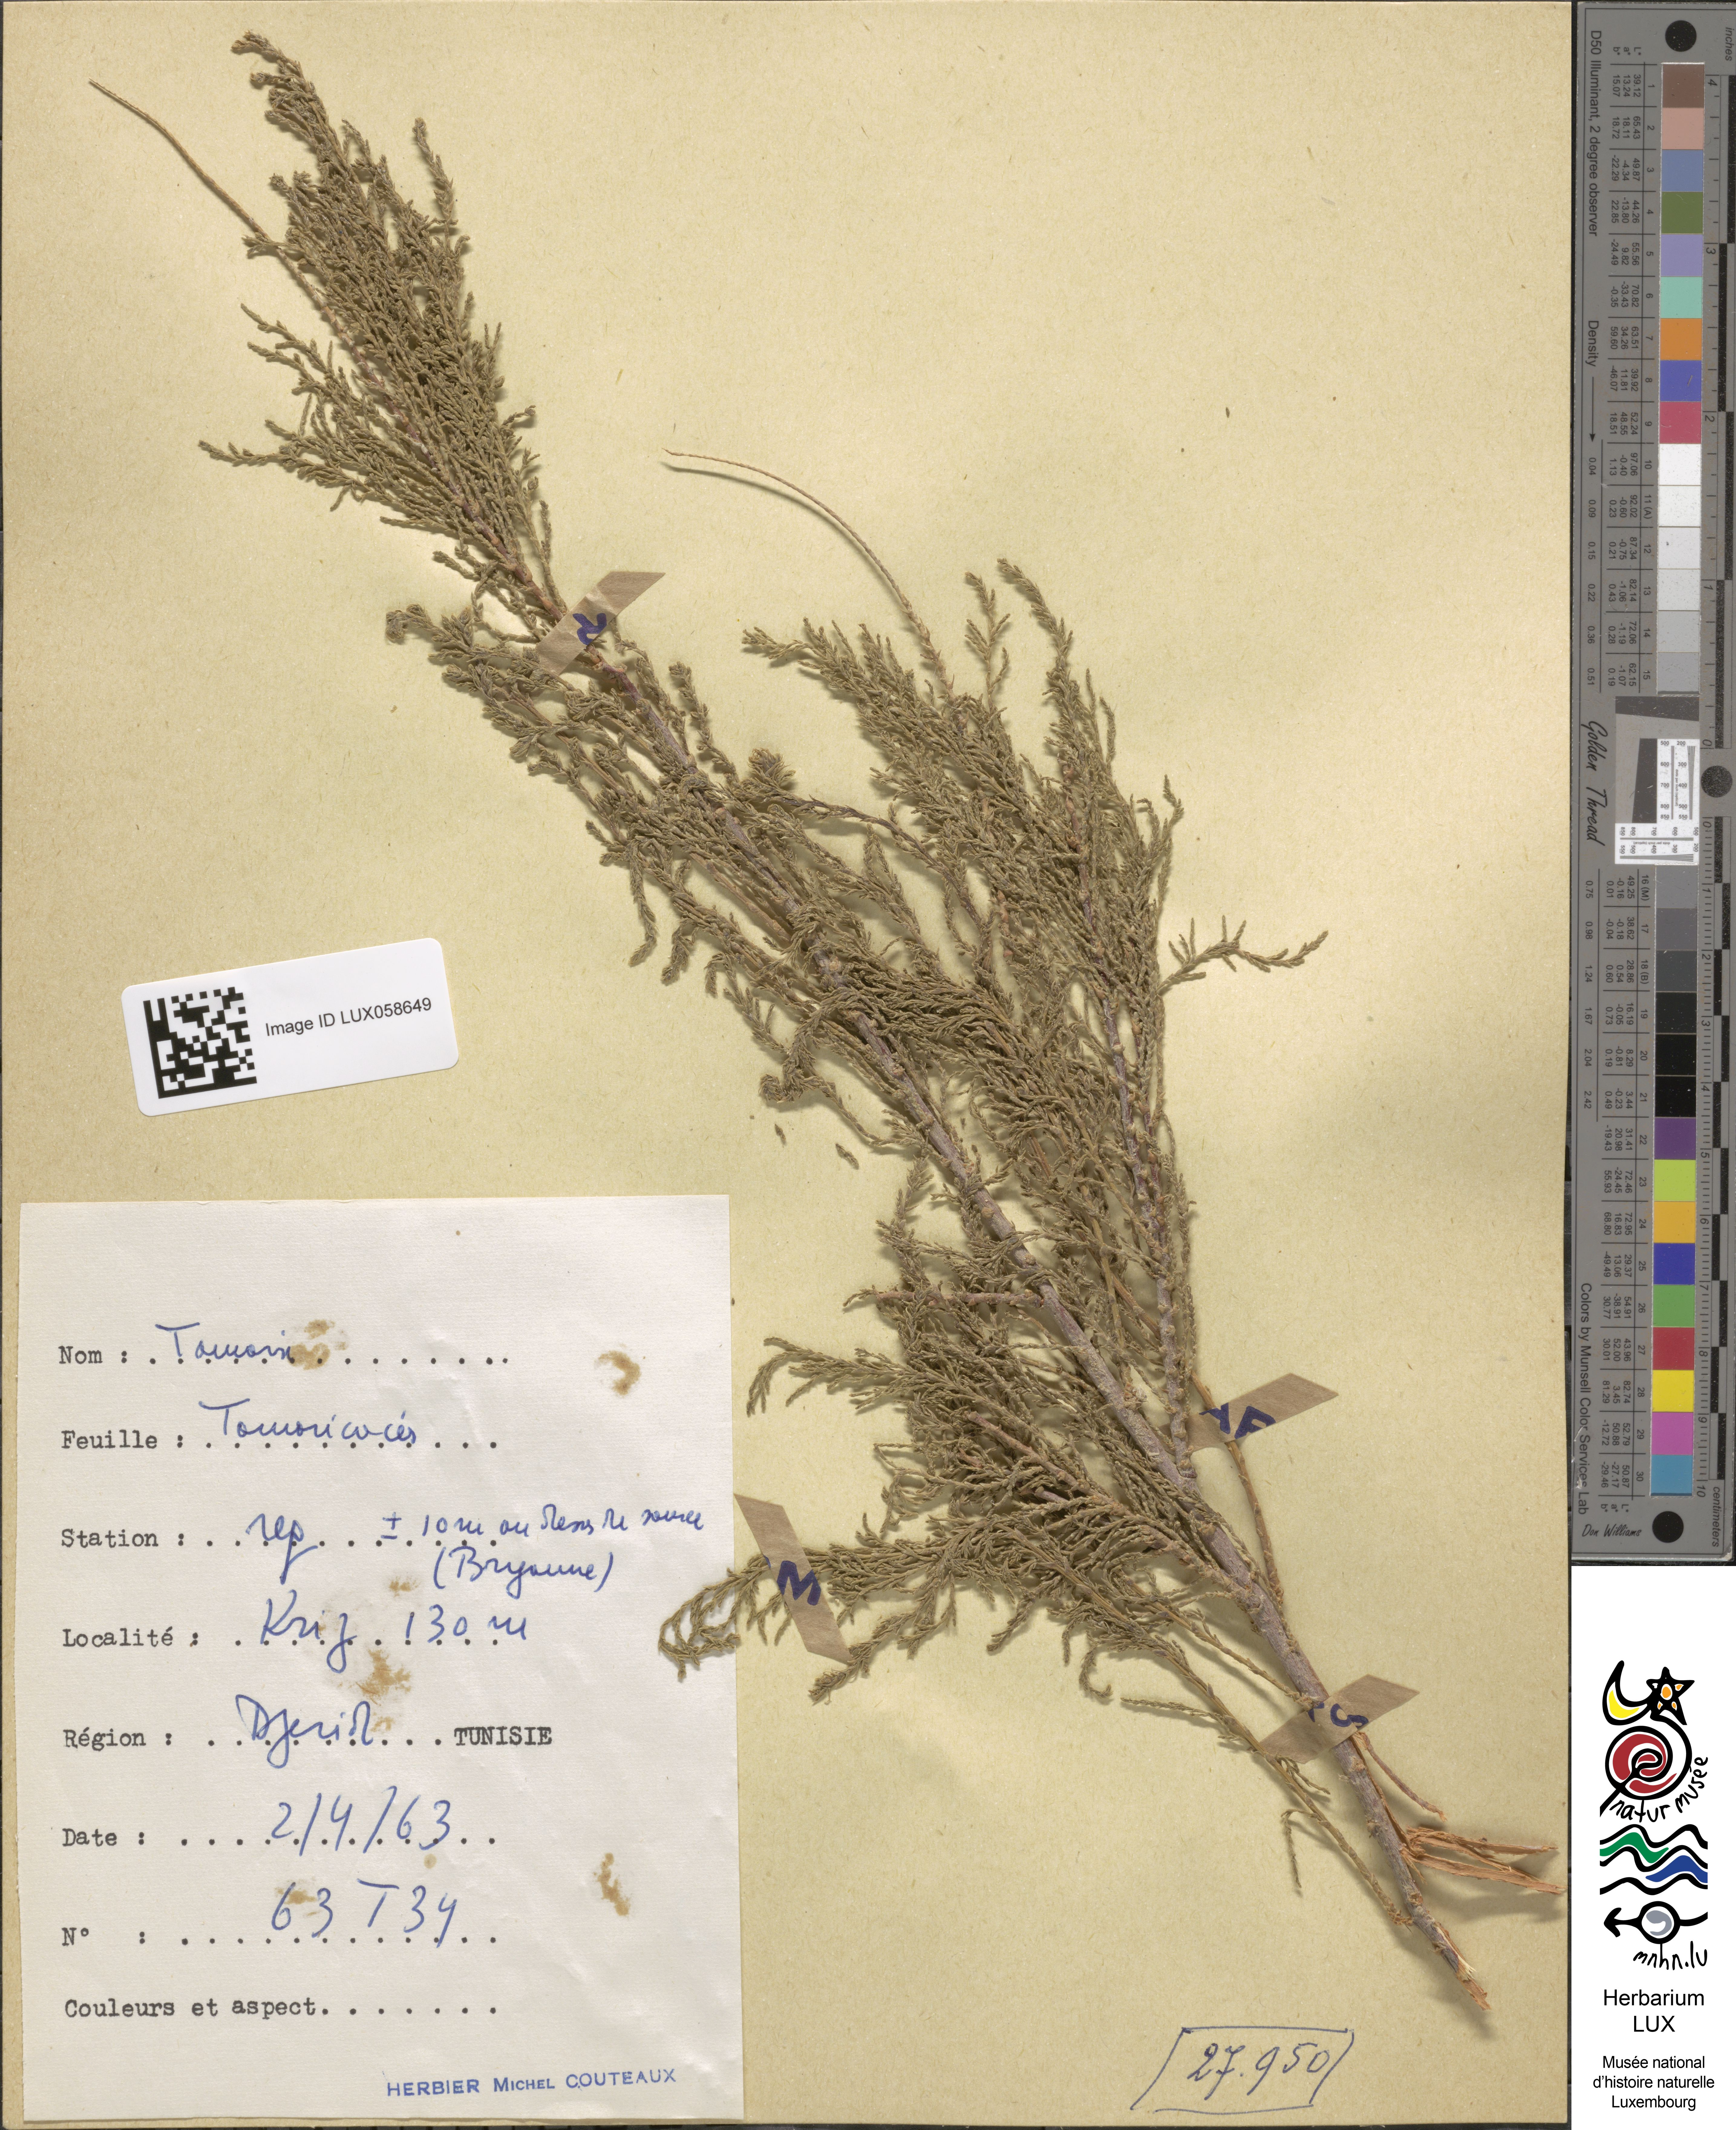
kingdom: Plantae
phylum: Tracheophyta
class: Magnoliopsida
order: Caryophyllales
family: Tamaricaceae
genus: Tamarix
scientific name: Tamarix
